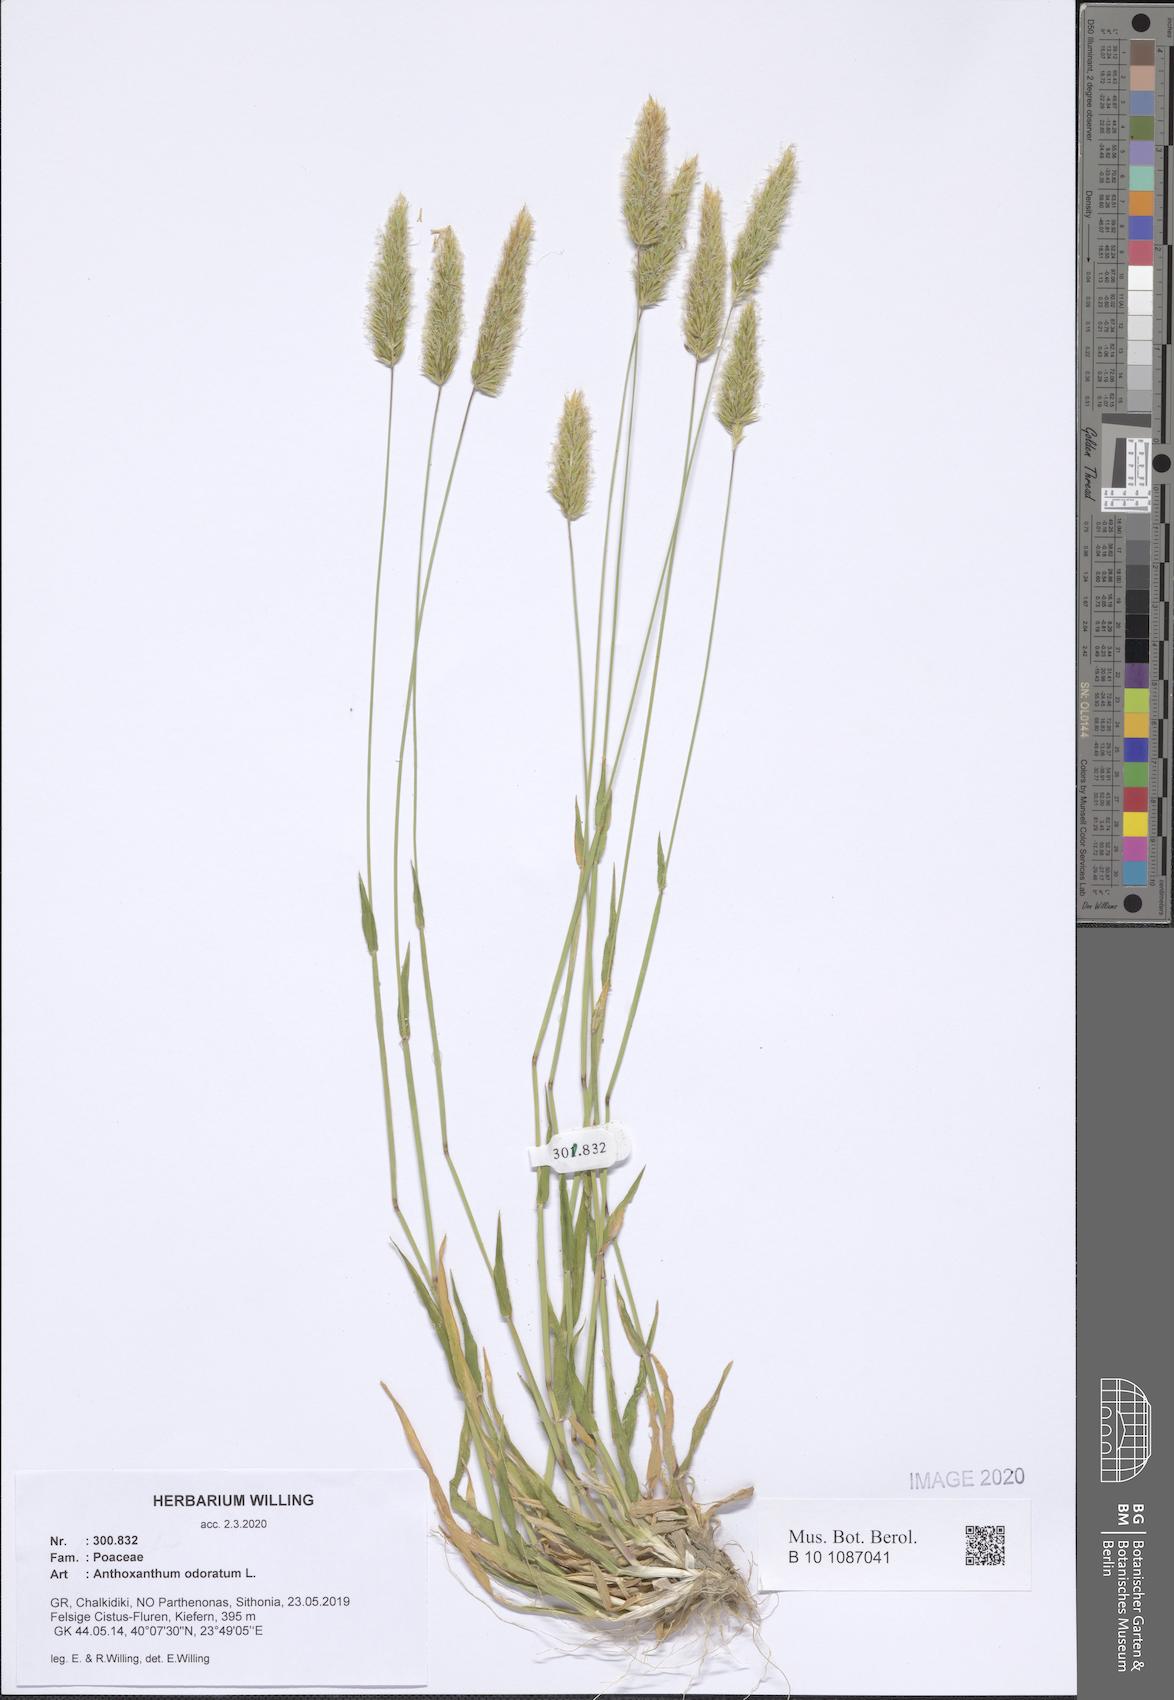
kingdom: Plantae
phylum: Tracheophyta
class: Liliopsida
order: Poales
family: Poaceae
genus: Anthoxanthum
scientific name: Anthoxanthum odoratum
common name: Sweet vernalgrass
